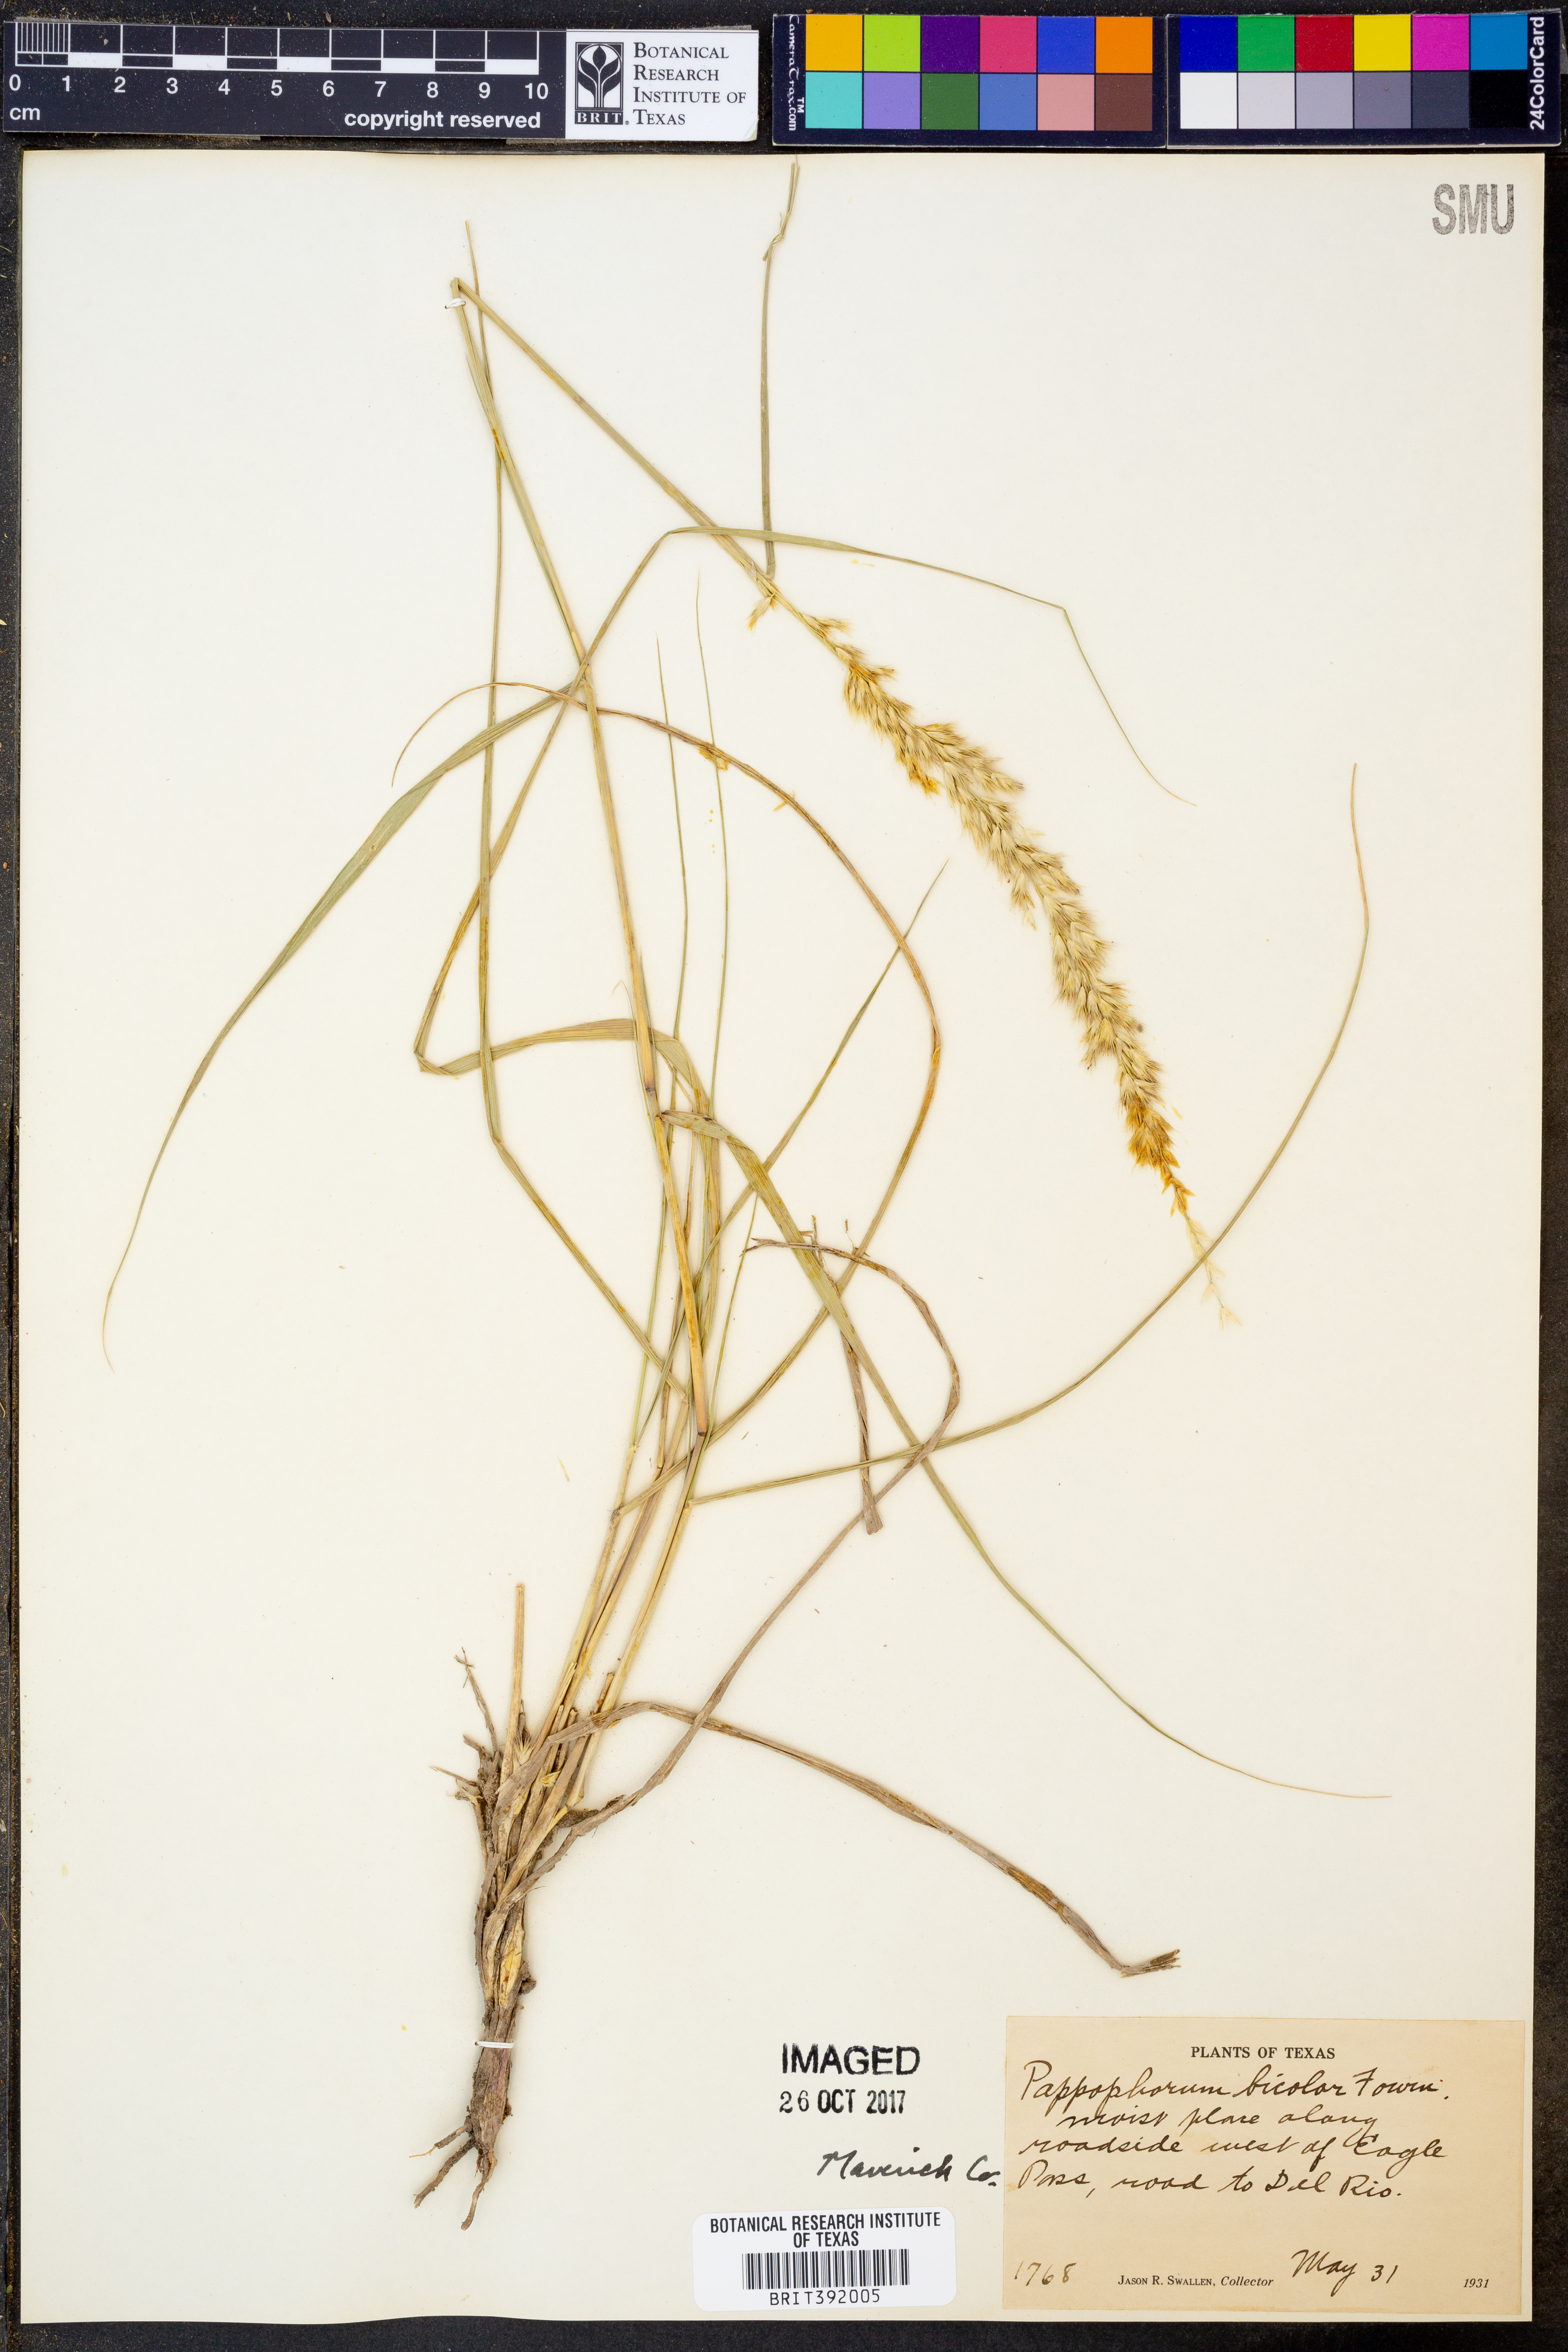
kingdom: Plantae
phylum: Tracheophyta
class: Liliopsida
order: Poales
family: Poaceae
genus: Pappophorum
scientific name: Pappophorum bicolor
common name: Pink pappus grass
